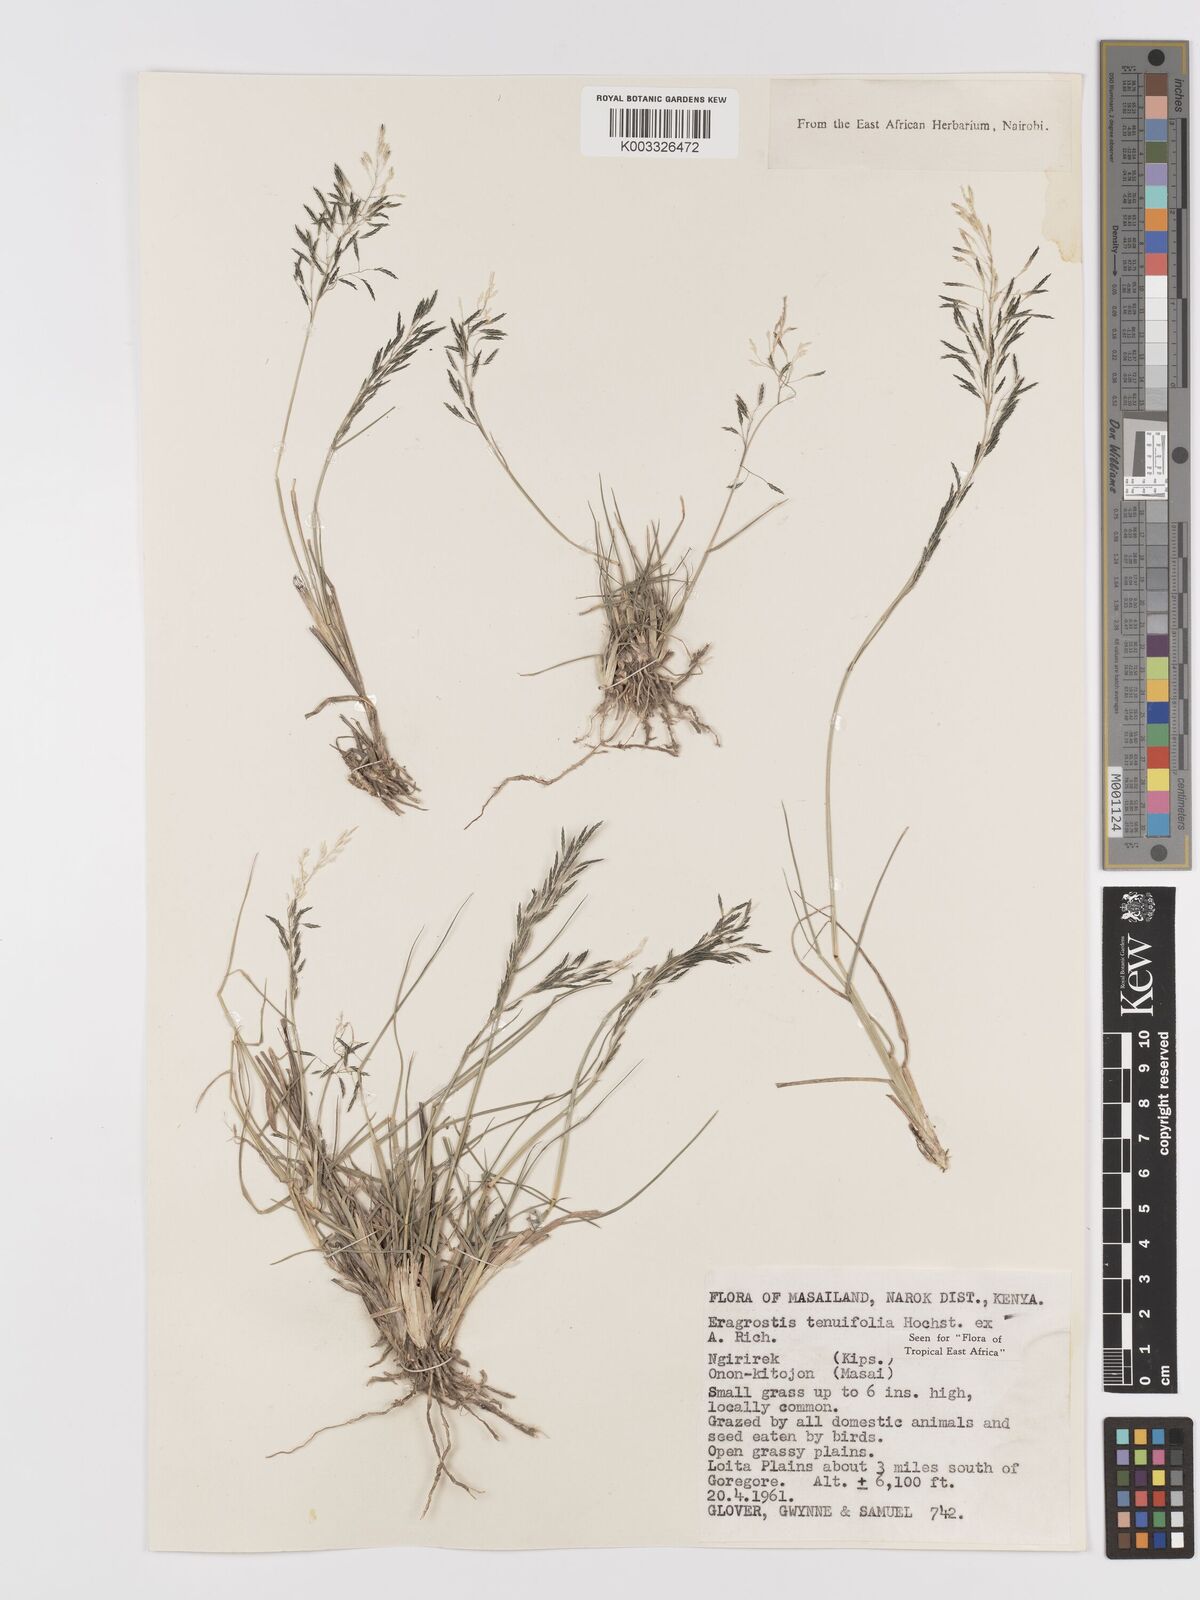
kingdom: Plantae
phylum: Tracheophyta
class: Liliopsida
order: Poales
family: Poaceae
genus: Eragrostis
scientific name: Eragrostis tenuifolia
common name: Elastic grass
